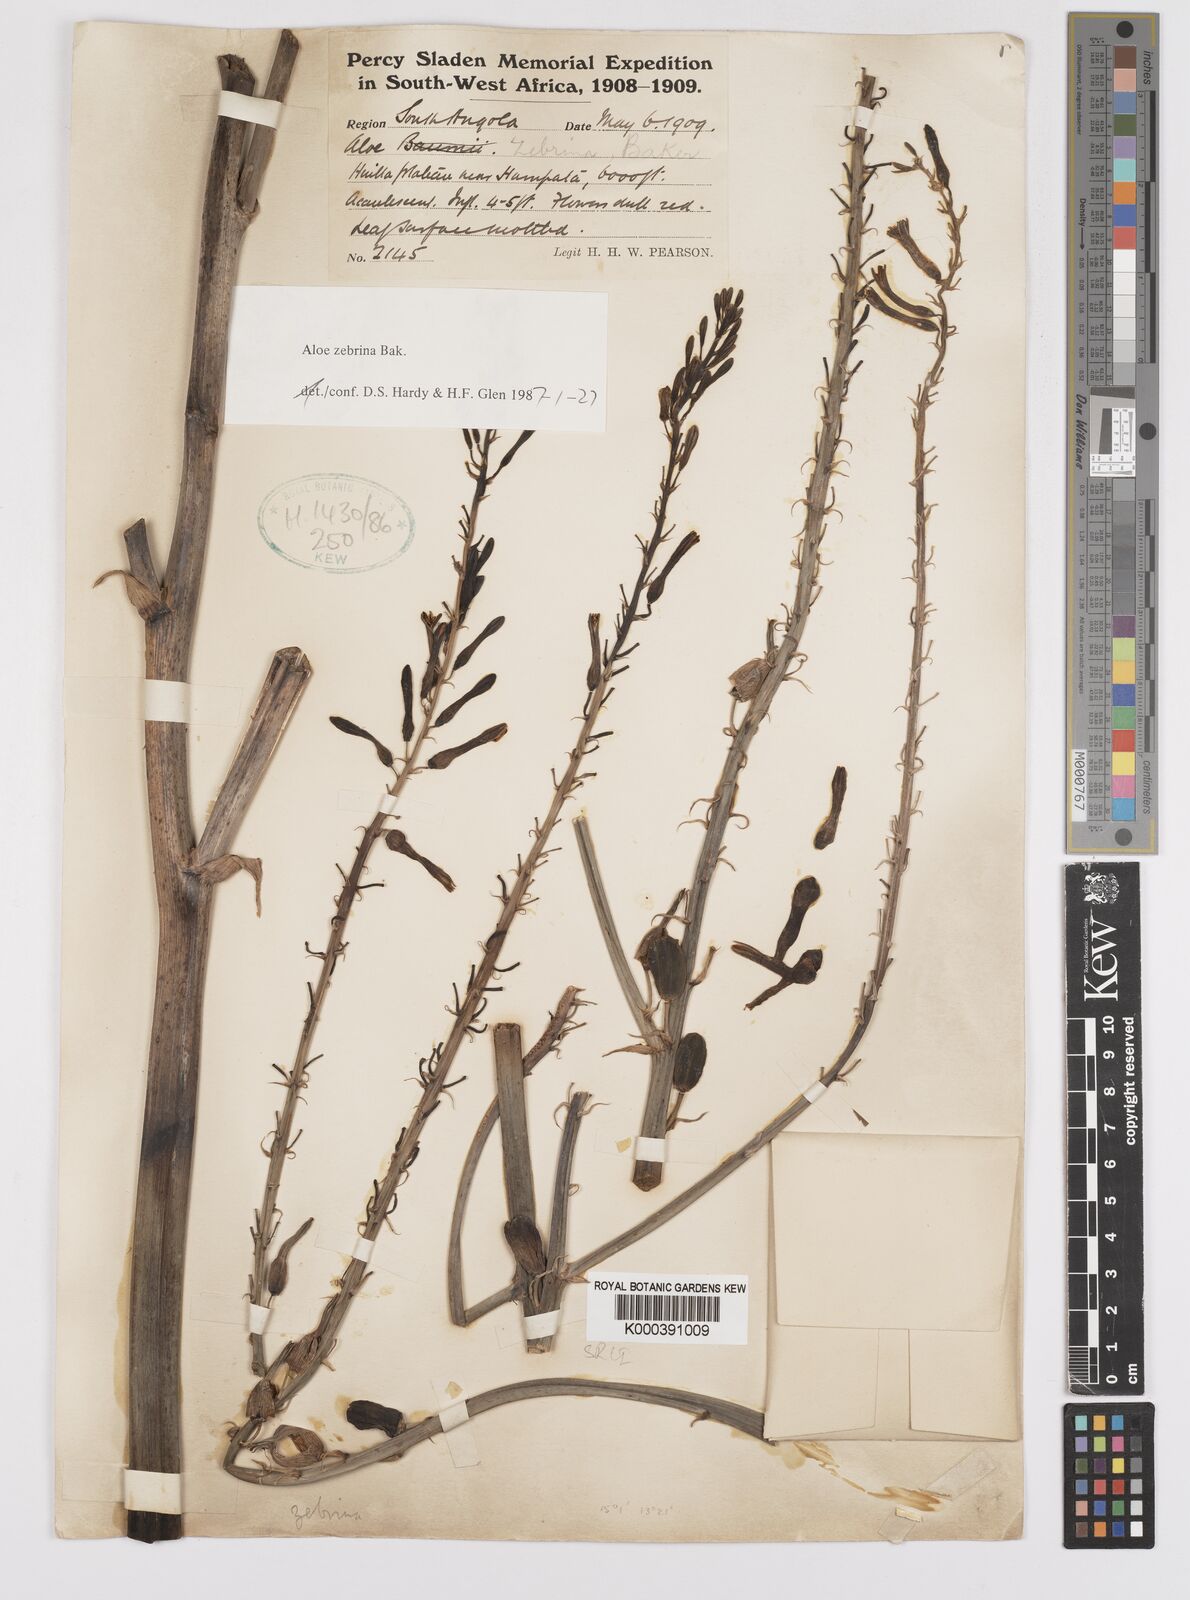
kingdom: Plantae
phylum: Tracheophyta
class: Liliopsida
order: Asparagales
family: Asphodelaceae
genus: Aloe
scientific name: Aloe zebrina
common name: Zebra-leaf aloe
